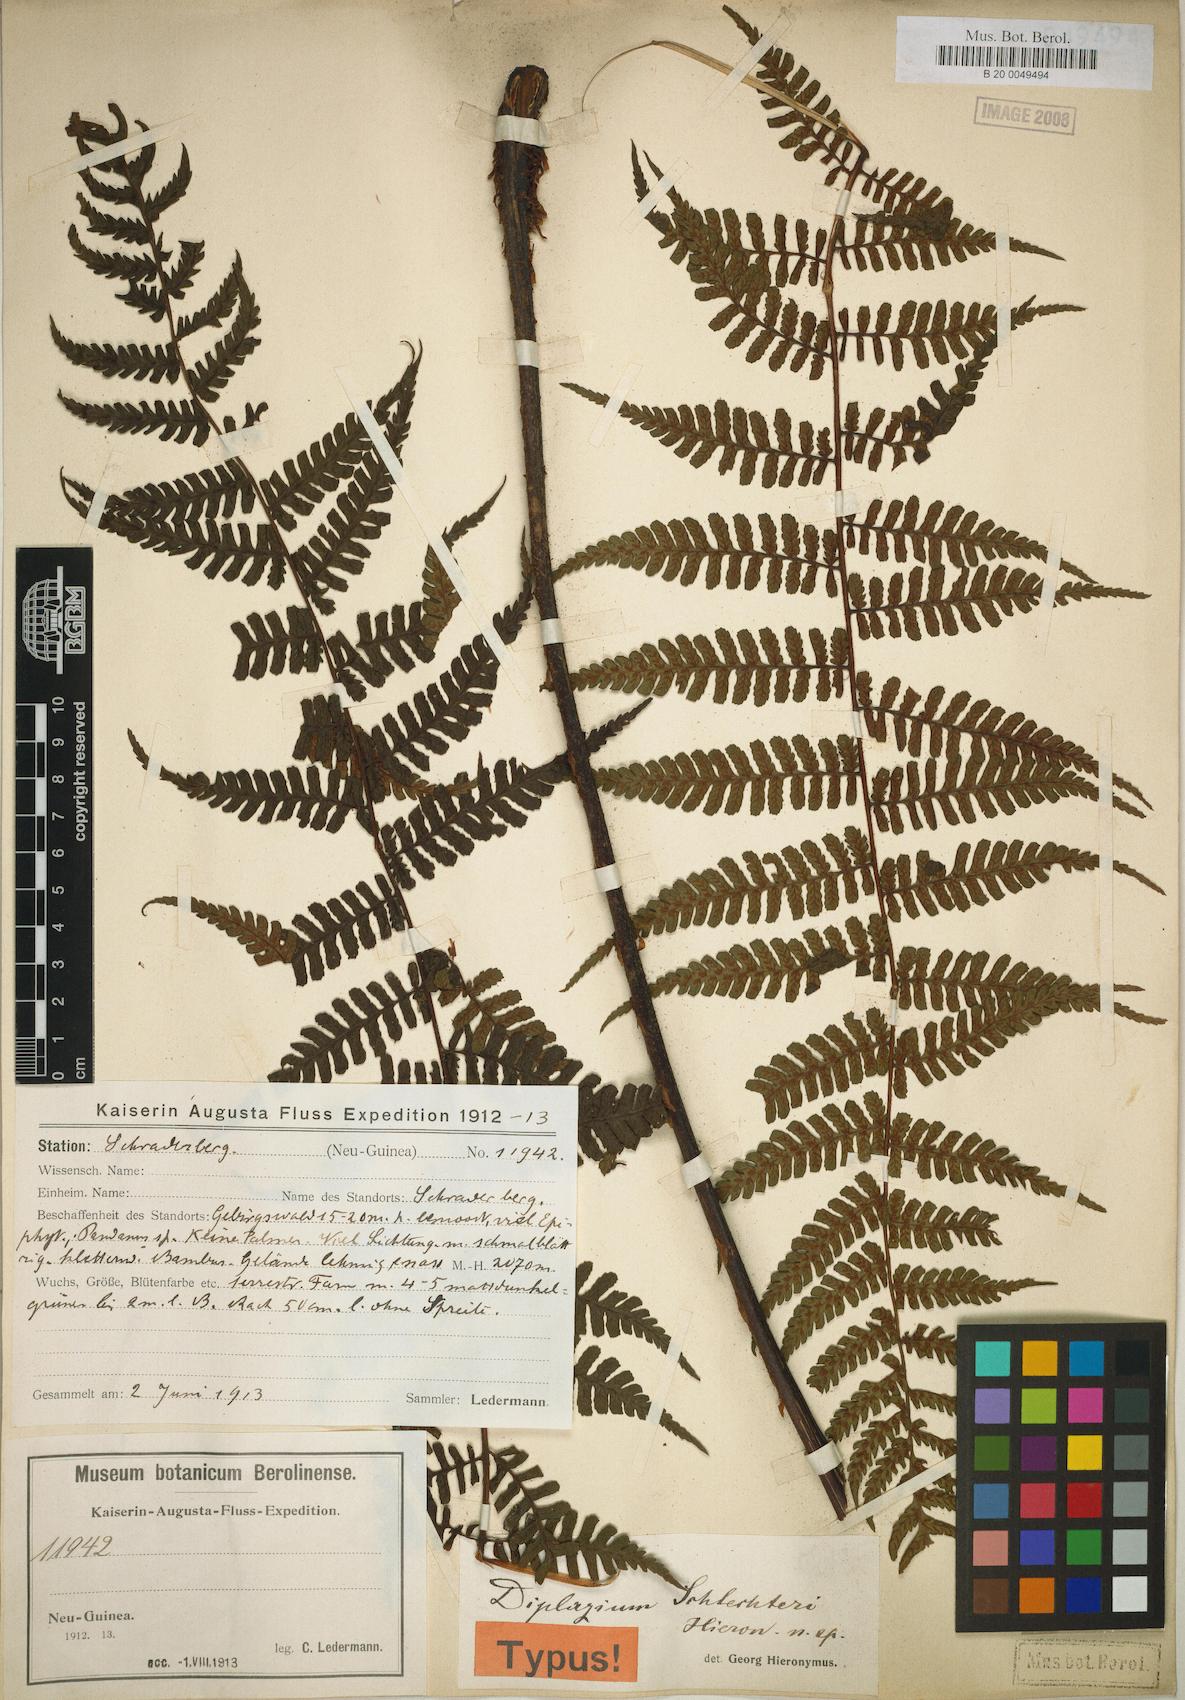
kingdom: Plantae
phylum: Tracheophyta
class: Polypodiopsida
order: Polypodiales
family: Athyriaceae
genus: Diplazium
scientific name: Diplazium schlechteri
